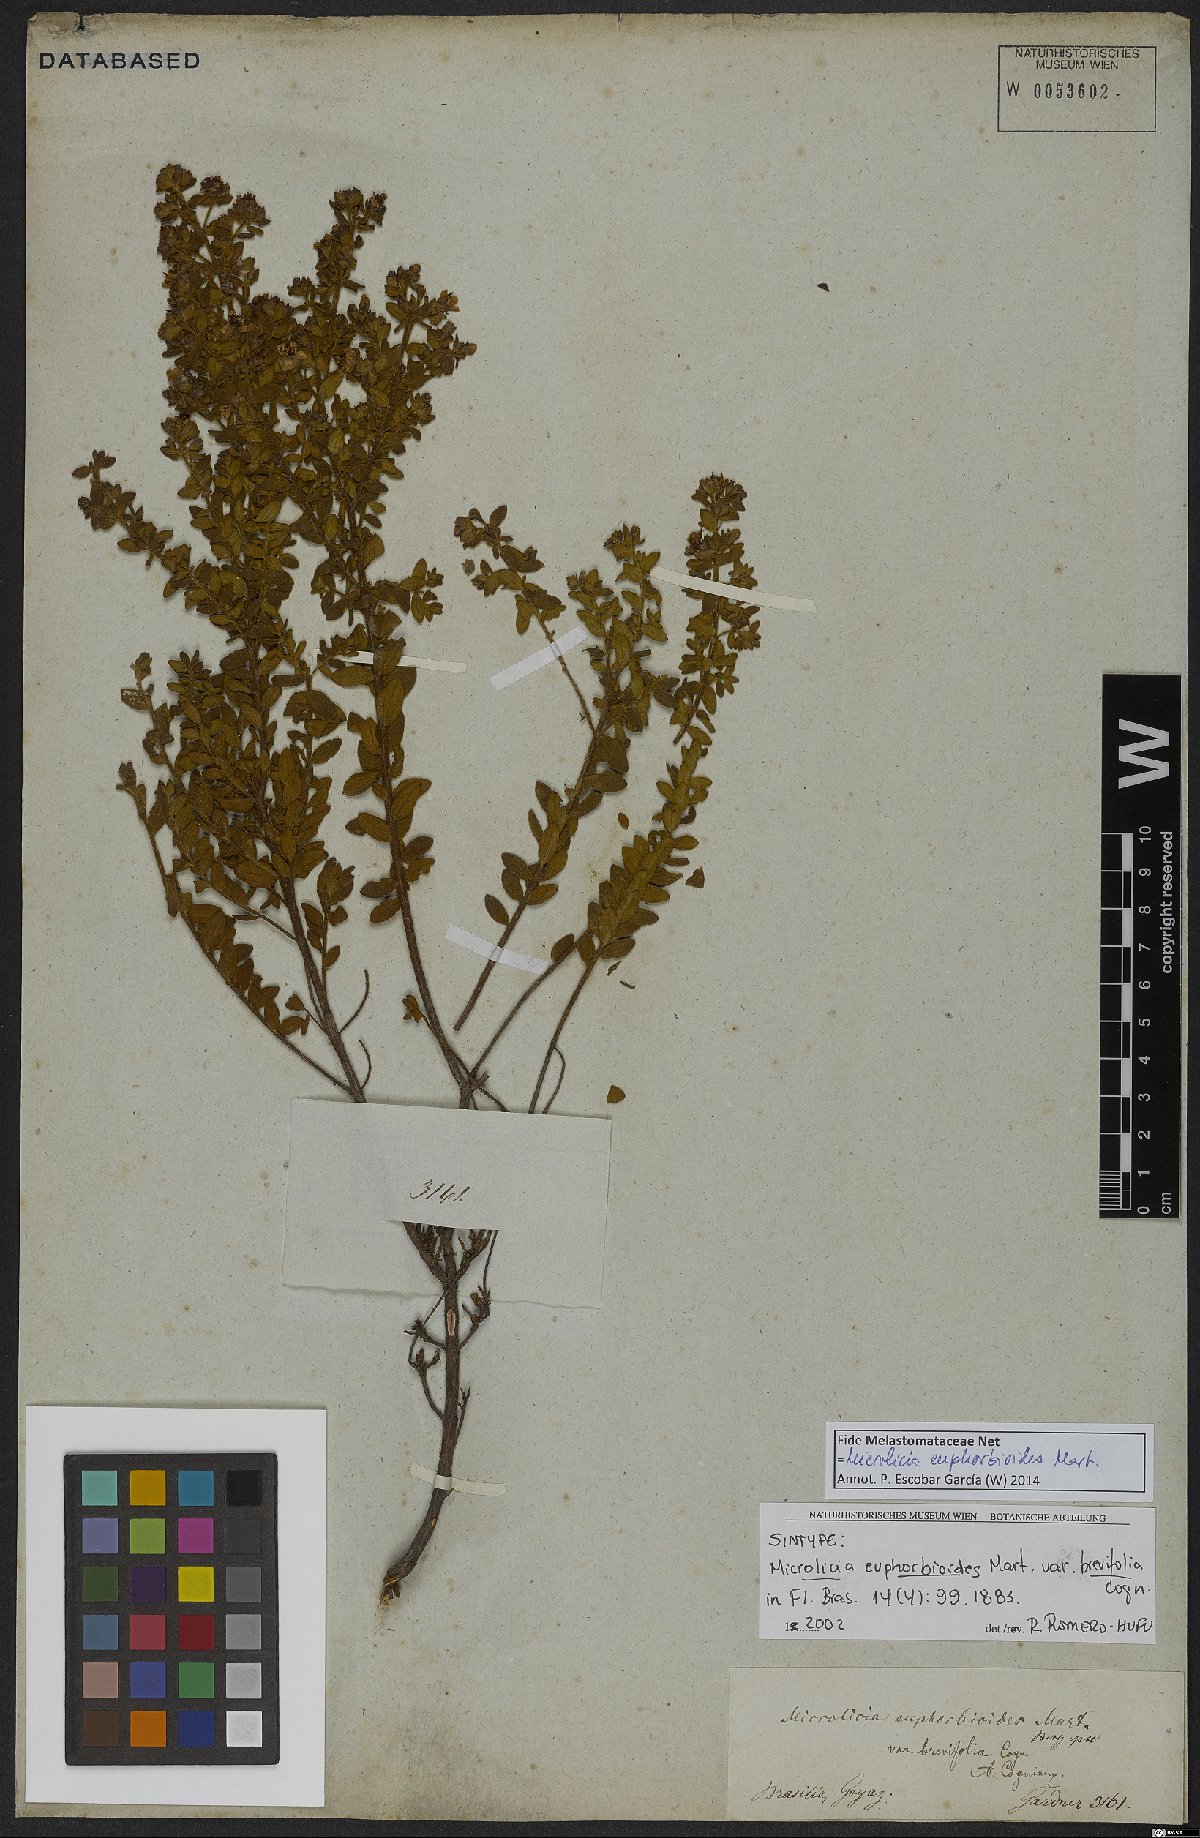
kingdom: Plantae
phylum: Tracheophyta
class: Magnoliopsida
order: Myrtales
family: Melastomataceae
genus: Microlicia
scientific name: Microlicia euphorbioides
